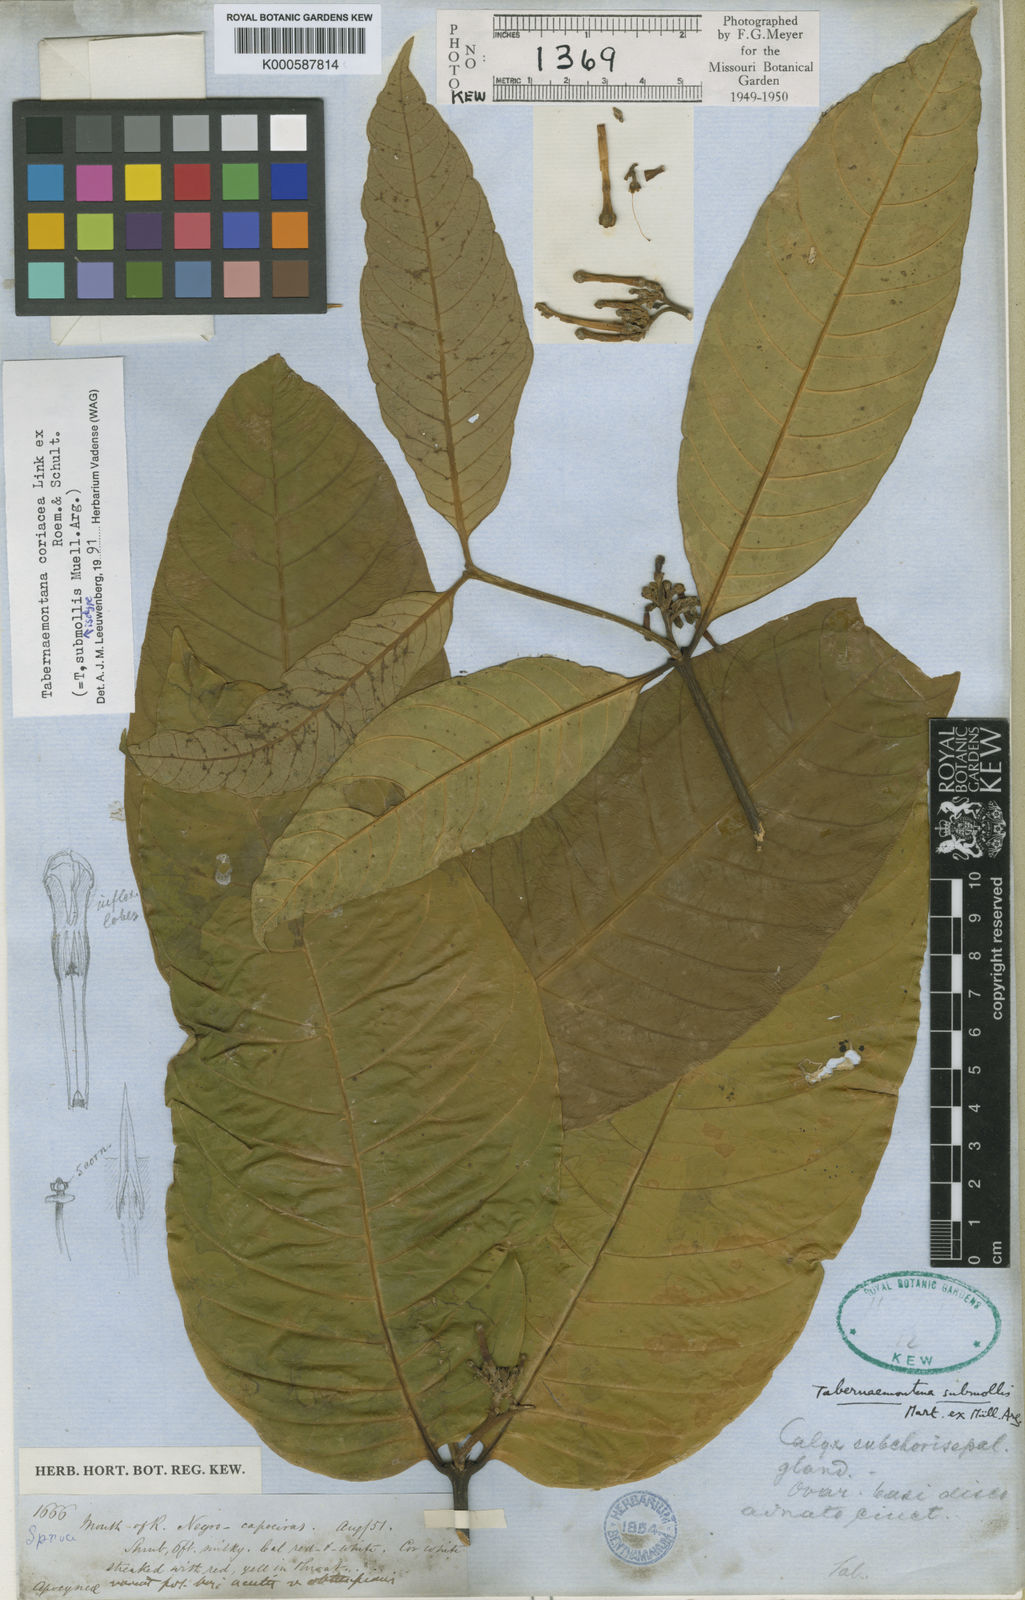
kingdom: Plantae
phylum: Tracheophyta
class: Magnoliopsida
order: Gentianales
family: Apocynaceae
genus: Tabernaemontana
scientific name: Tabernaemontana coriacea
